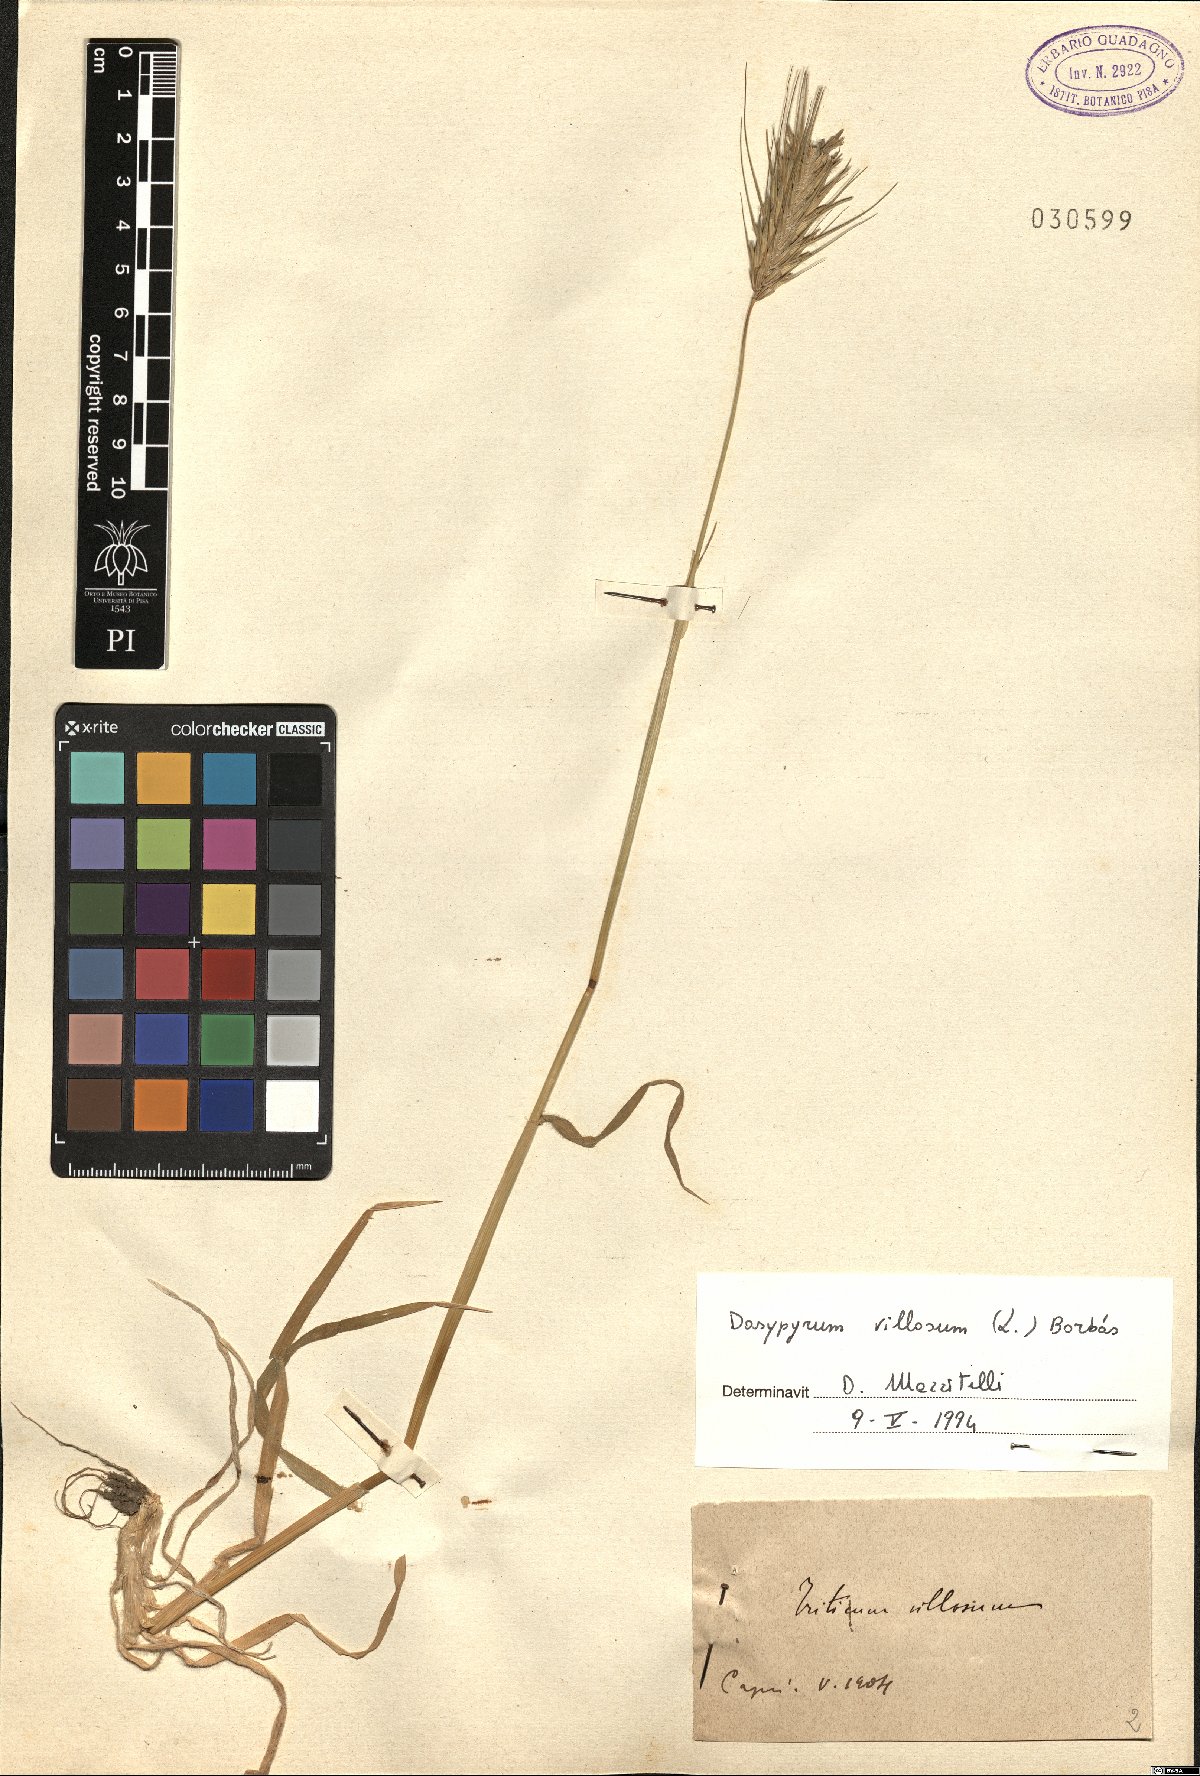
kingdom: Plantae
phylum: Tracheophyta
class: Liliopsida
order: Poales
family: Poaceae
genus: Dasypyrum
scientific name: Dasypyrum villosum
